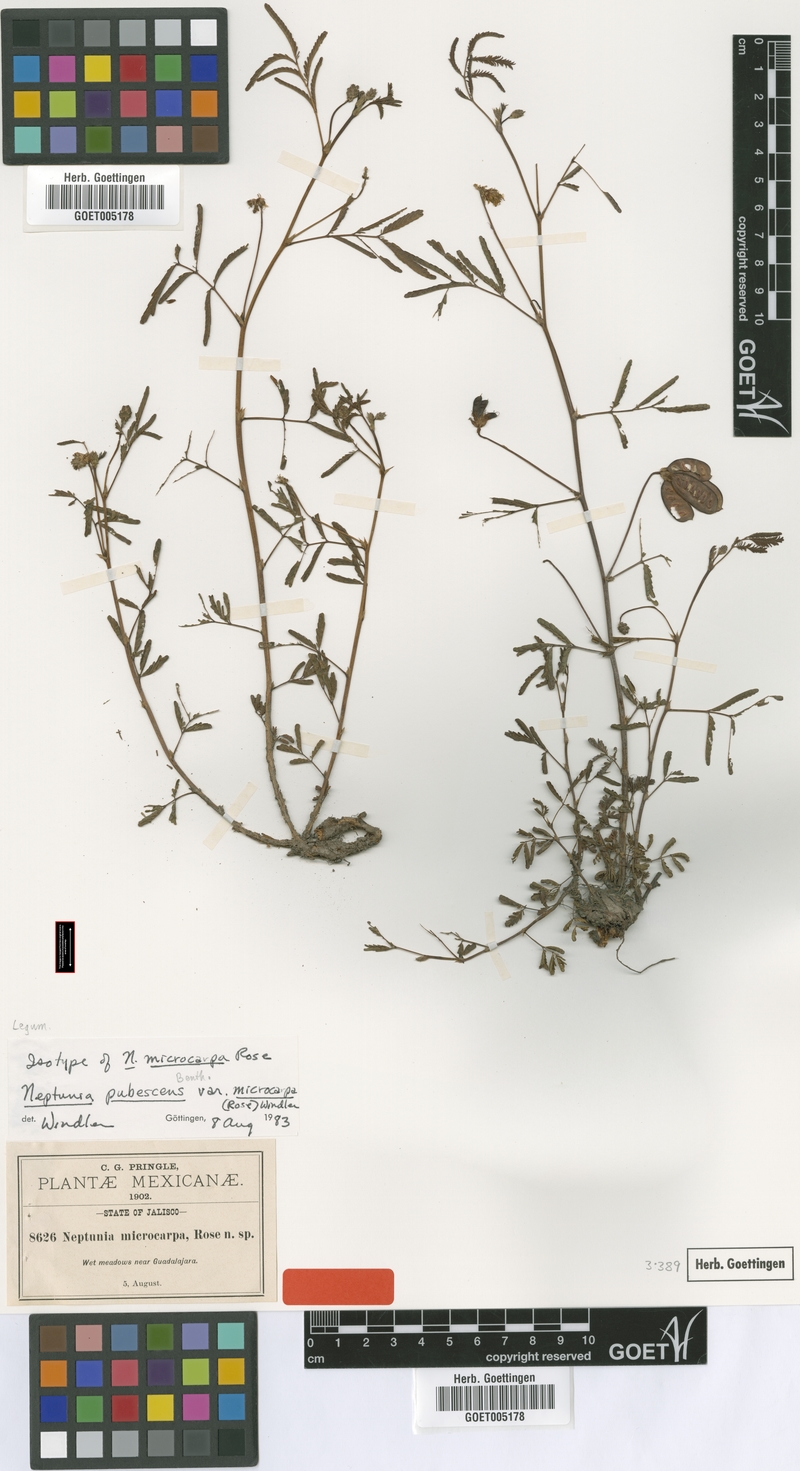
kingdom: Plantae
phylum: Tracheophyta
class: Magnoliopsida
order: Fabales
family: Fabaceae
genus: Neptunia
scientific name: Neptunia pubescens
